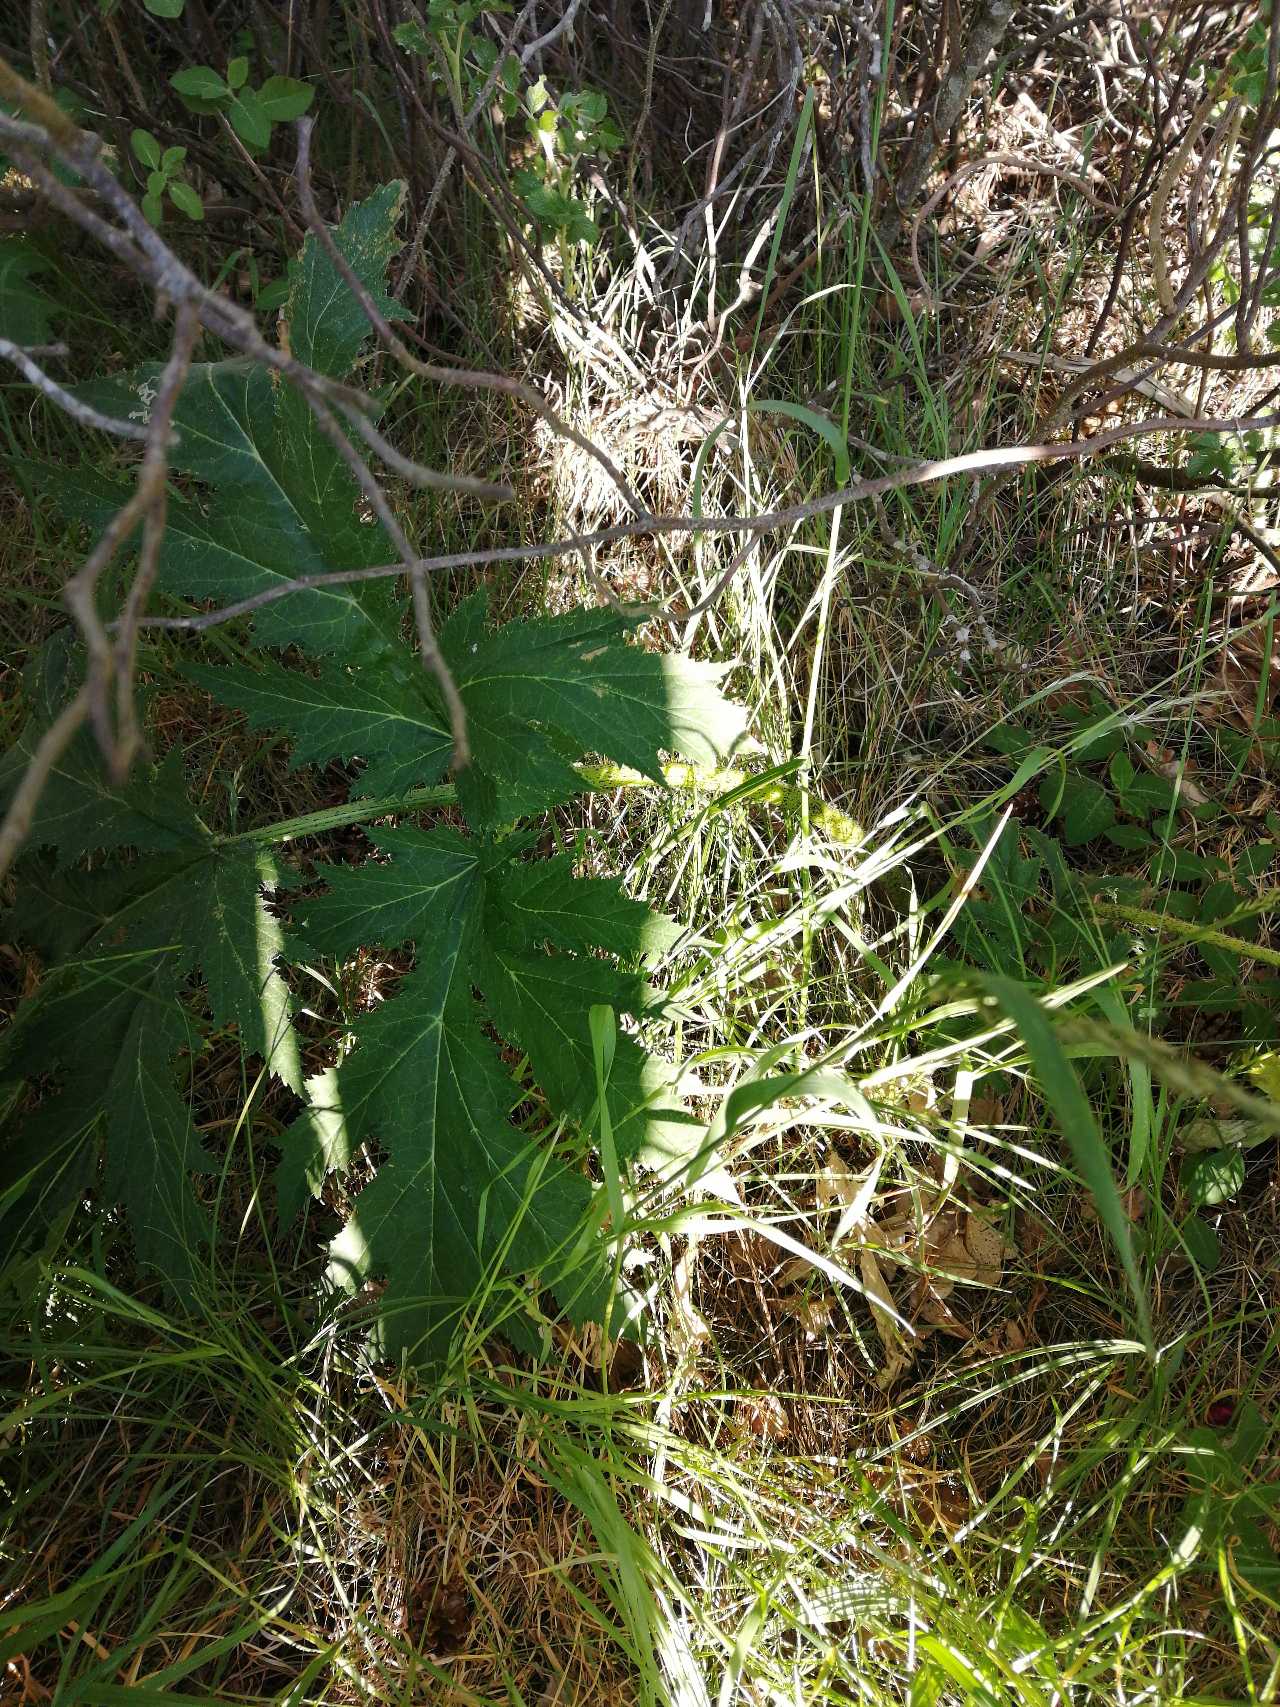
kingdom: Plantae
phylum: Tracheophyta
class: Magnoliopsida
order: Apiales
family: Apiaceae
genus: Heracleum
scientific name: Heracleum mantegazzianum
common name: Kæmpe-bjørneklo
